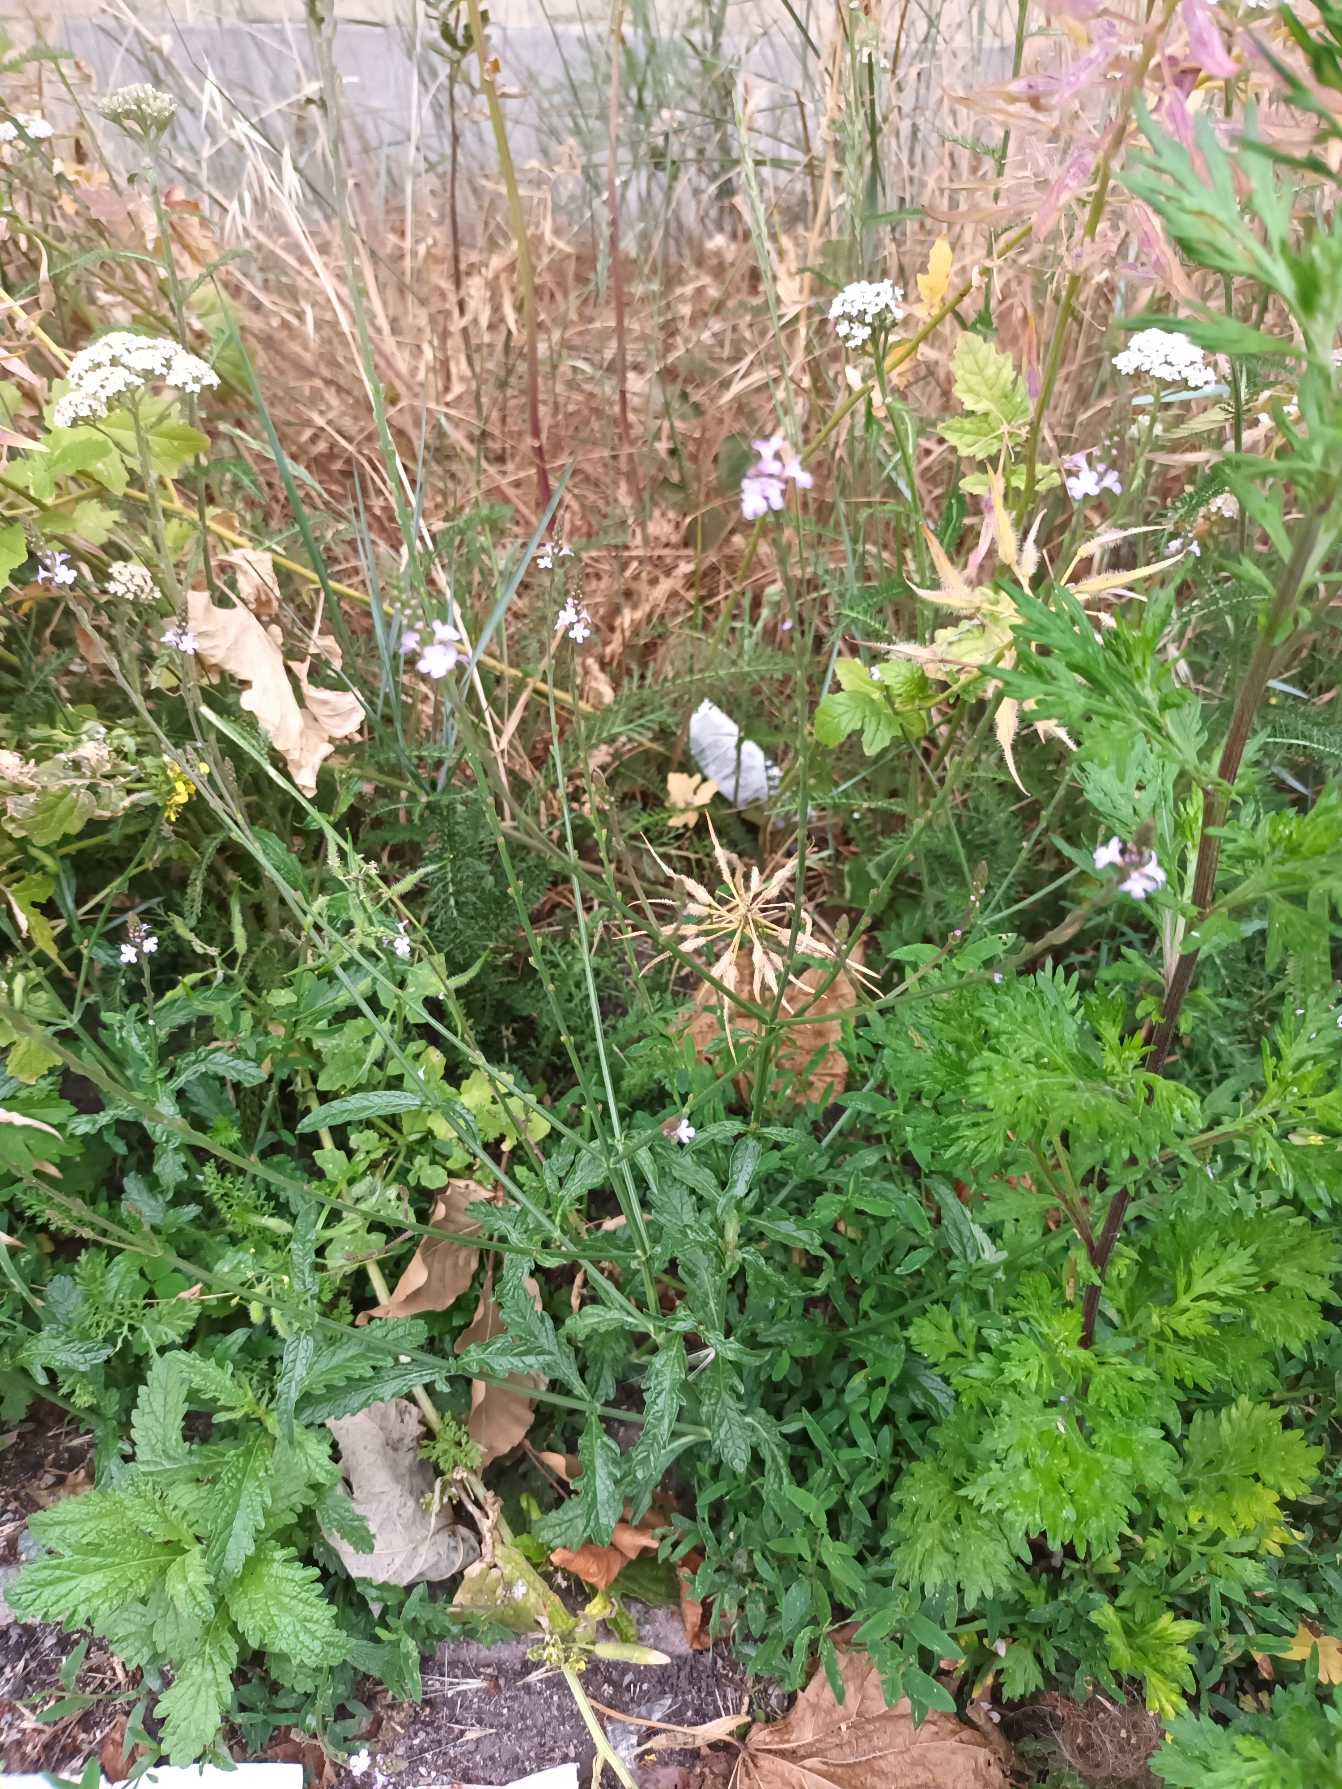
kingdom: Plantae
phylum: Tracheophyta
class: Magnoliopsida
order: Lamiales
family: Verbenaceae
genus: Verbena
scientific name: Verbena officinalis
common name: Læge-jernurt
